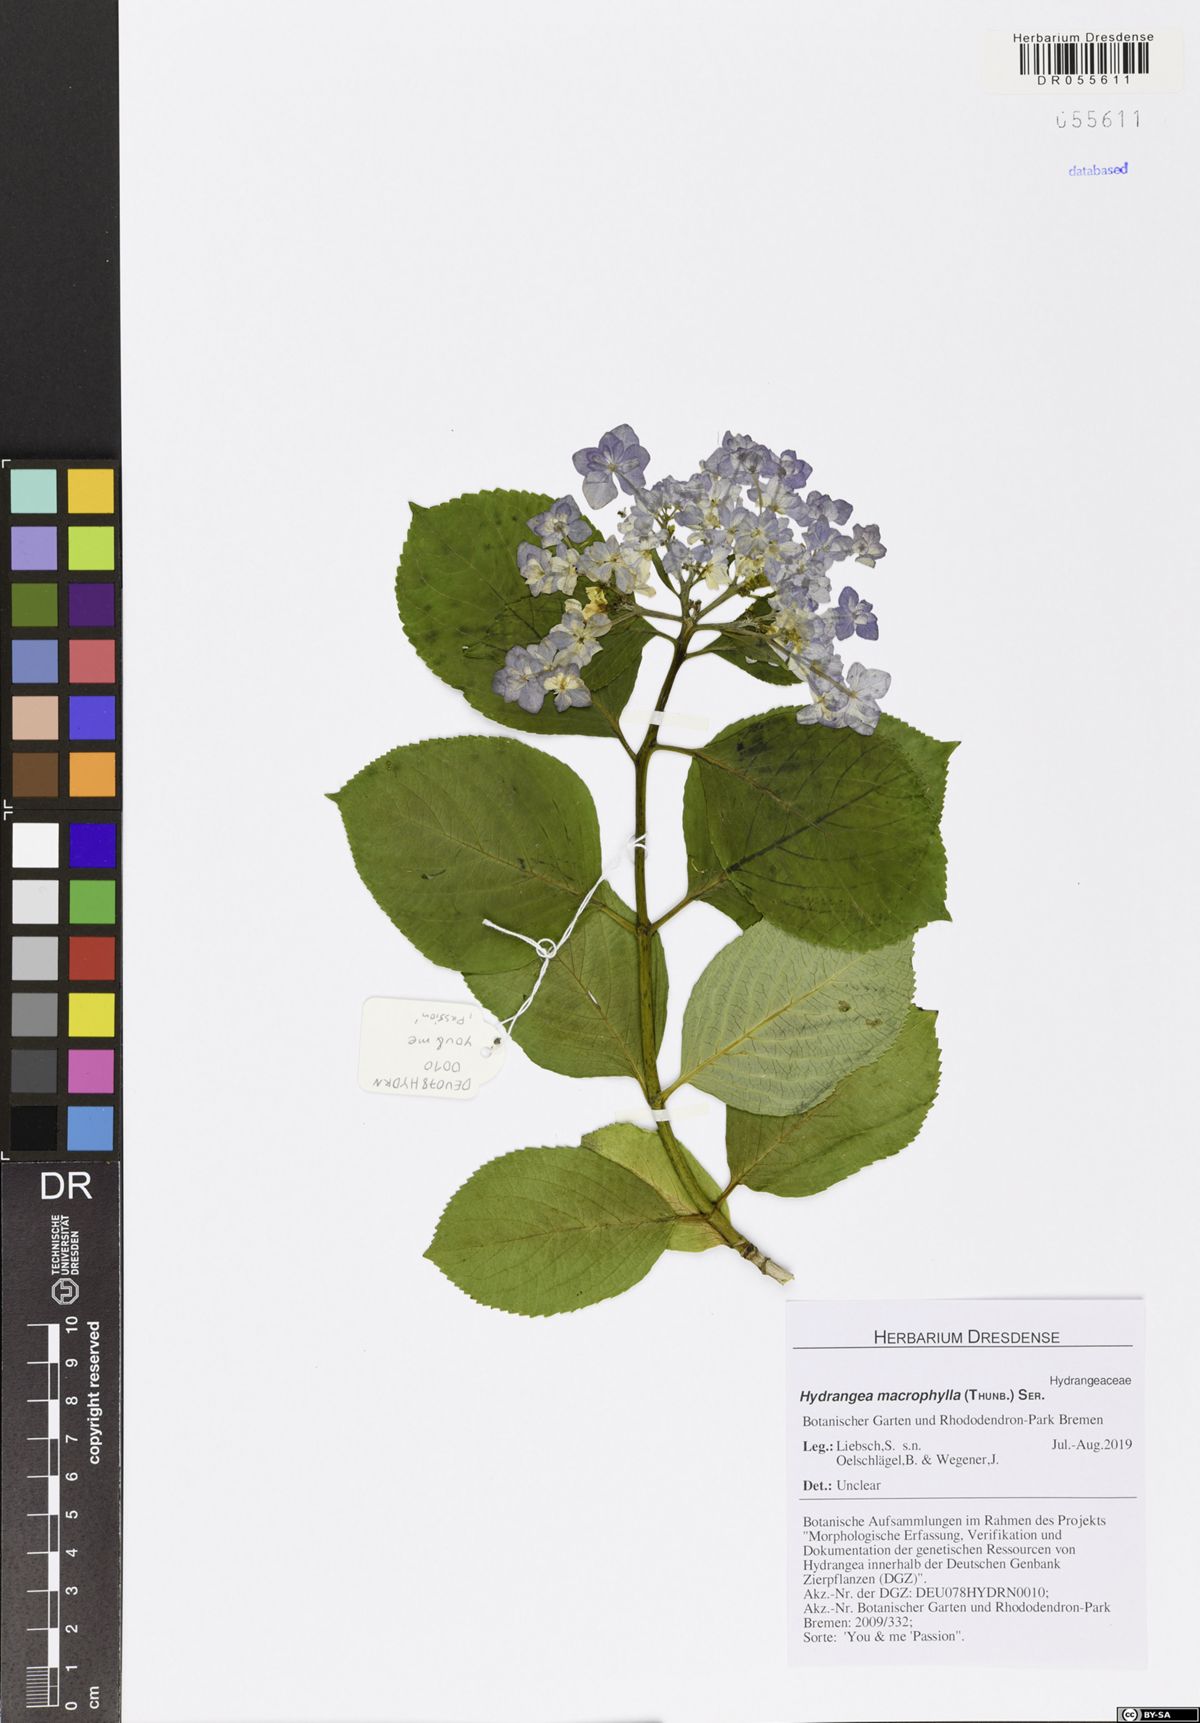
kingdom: Plantae
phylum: Tracheophyta
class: Magnoliopsida
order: Cornales
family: Hydrangeaceae
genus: Hydrangea
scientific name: Hydrangea macrophylla
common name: Hydrangea
